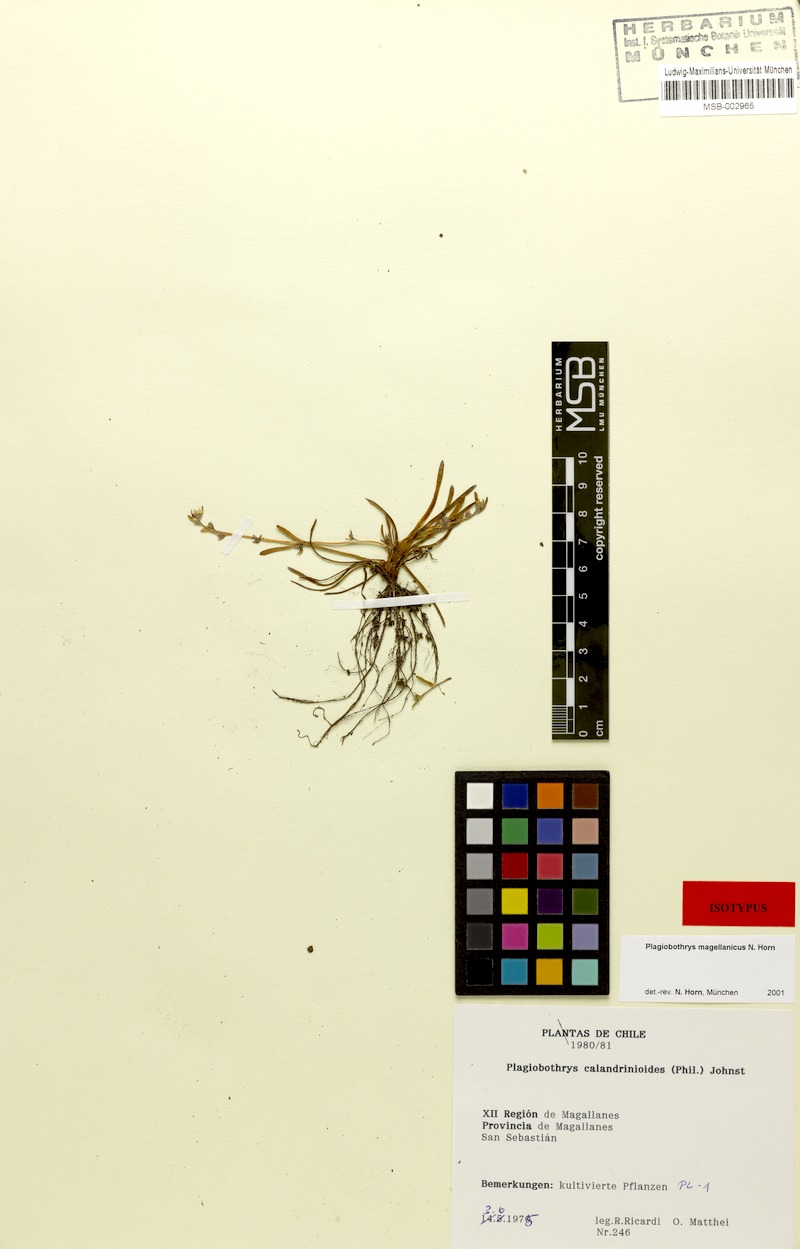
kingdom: Plantae
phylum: Tracheophyta
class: Magnoliopsida
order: Boraginales
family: Boraginaceae
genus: Plagiobothrys
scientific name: Plagiobothrys
